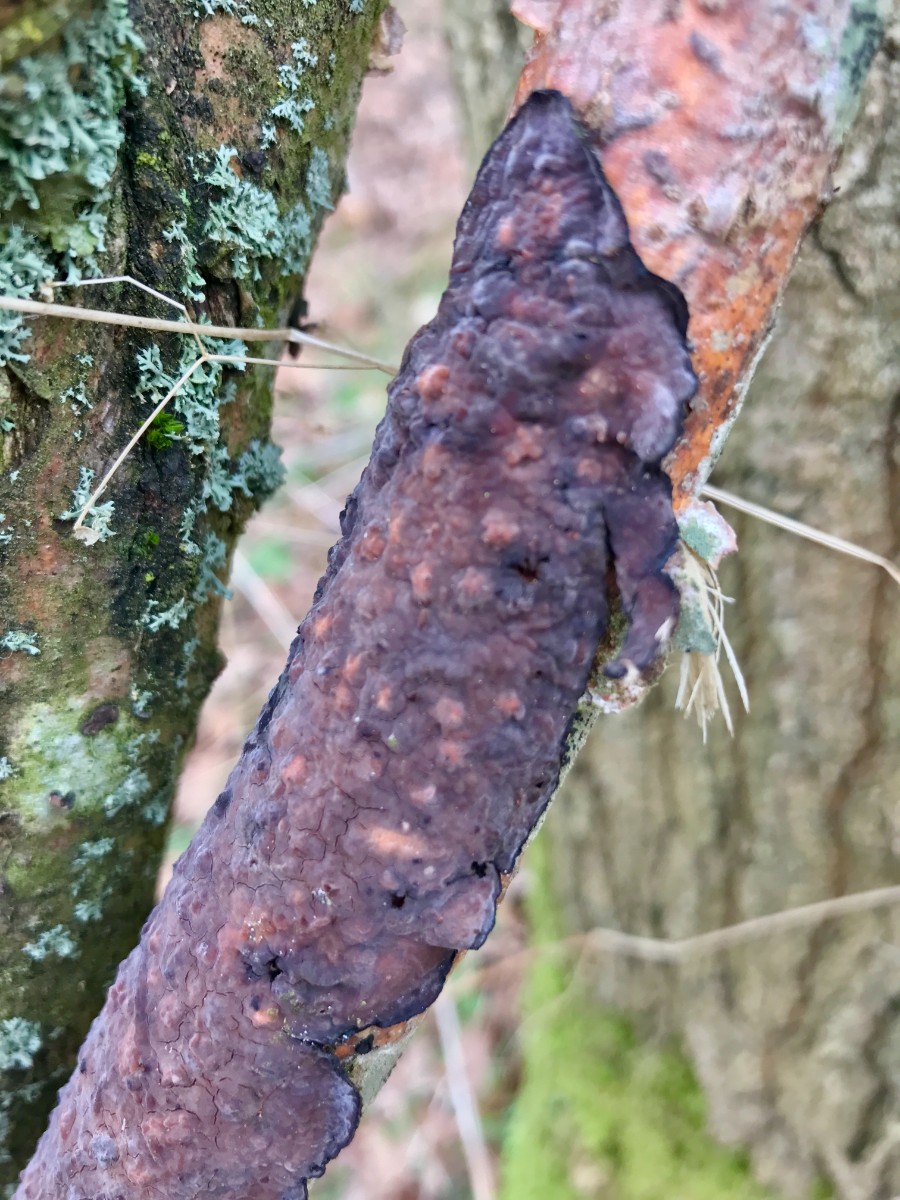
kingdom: Fungi
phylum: Basidiomycota
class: Agaricomycetes
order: Russulales
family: Peniophoraceae
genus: Peniophora
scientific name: Peniophora quercina
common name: ege-voksskind
